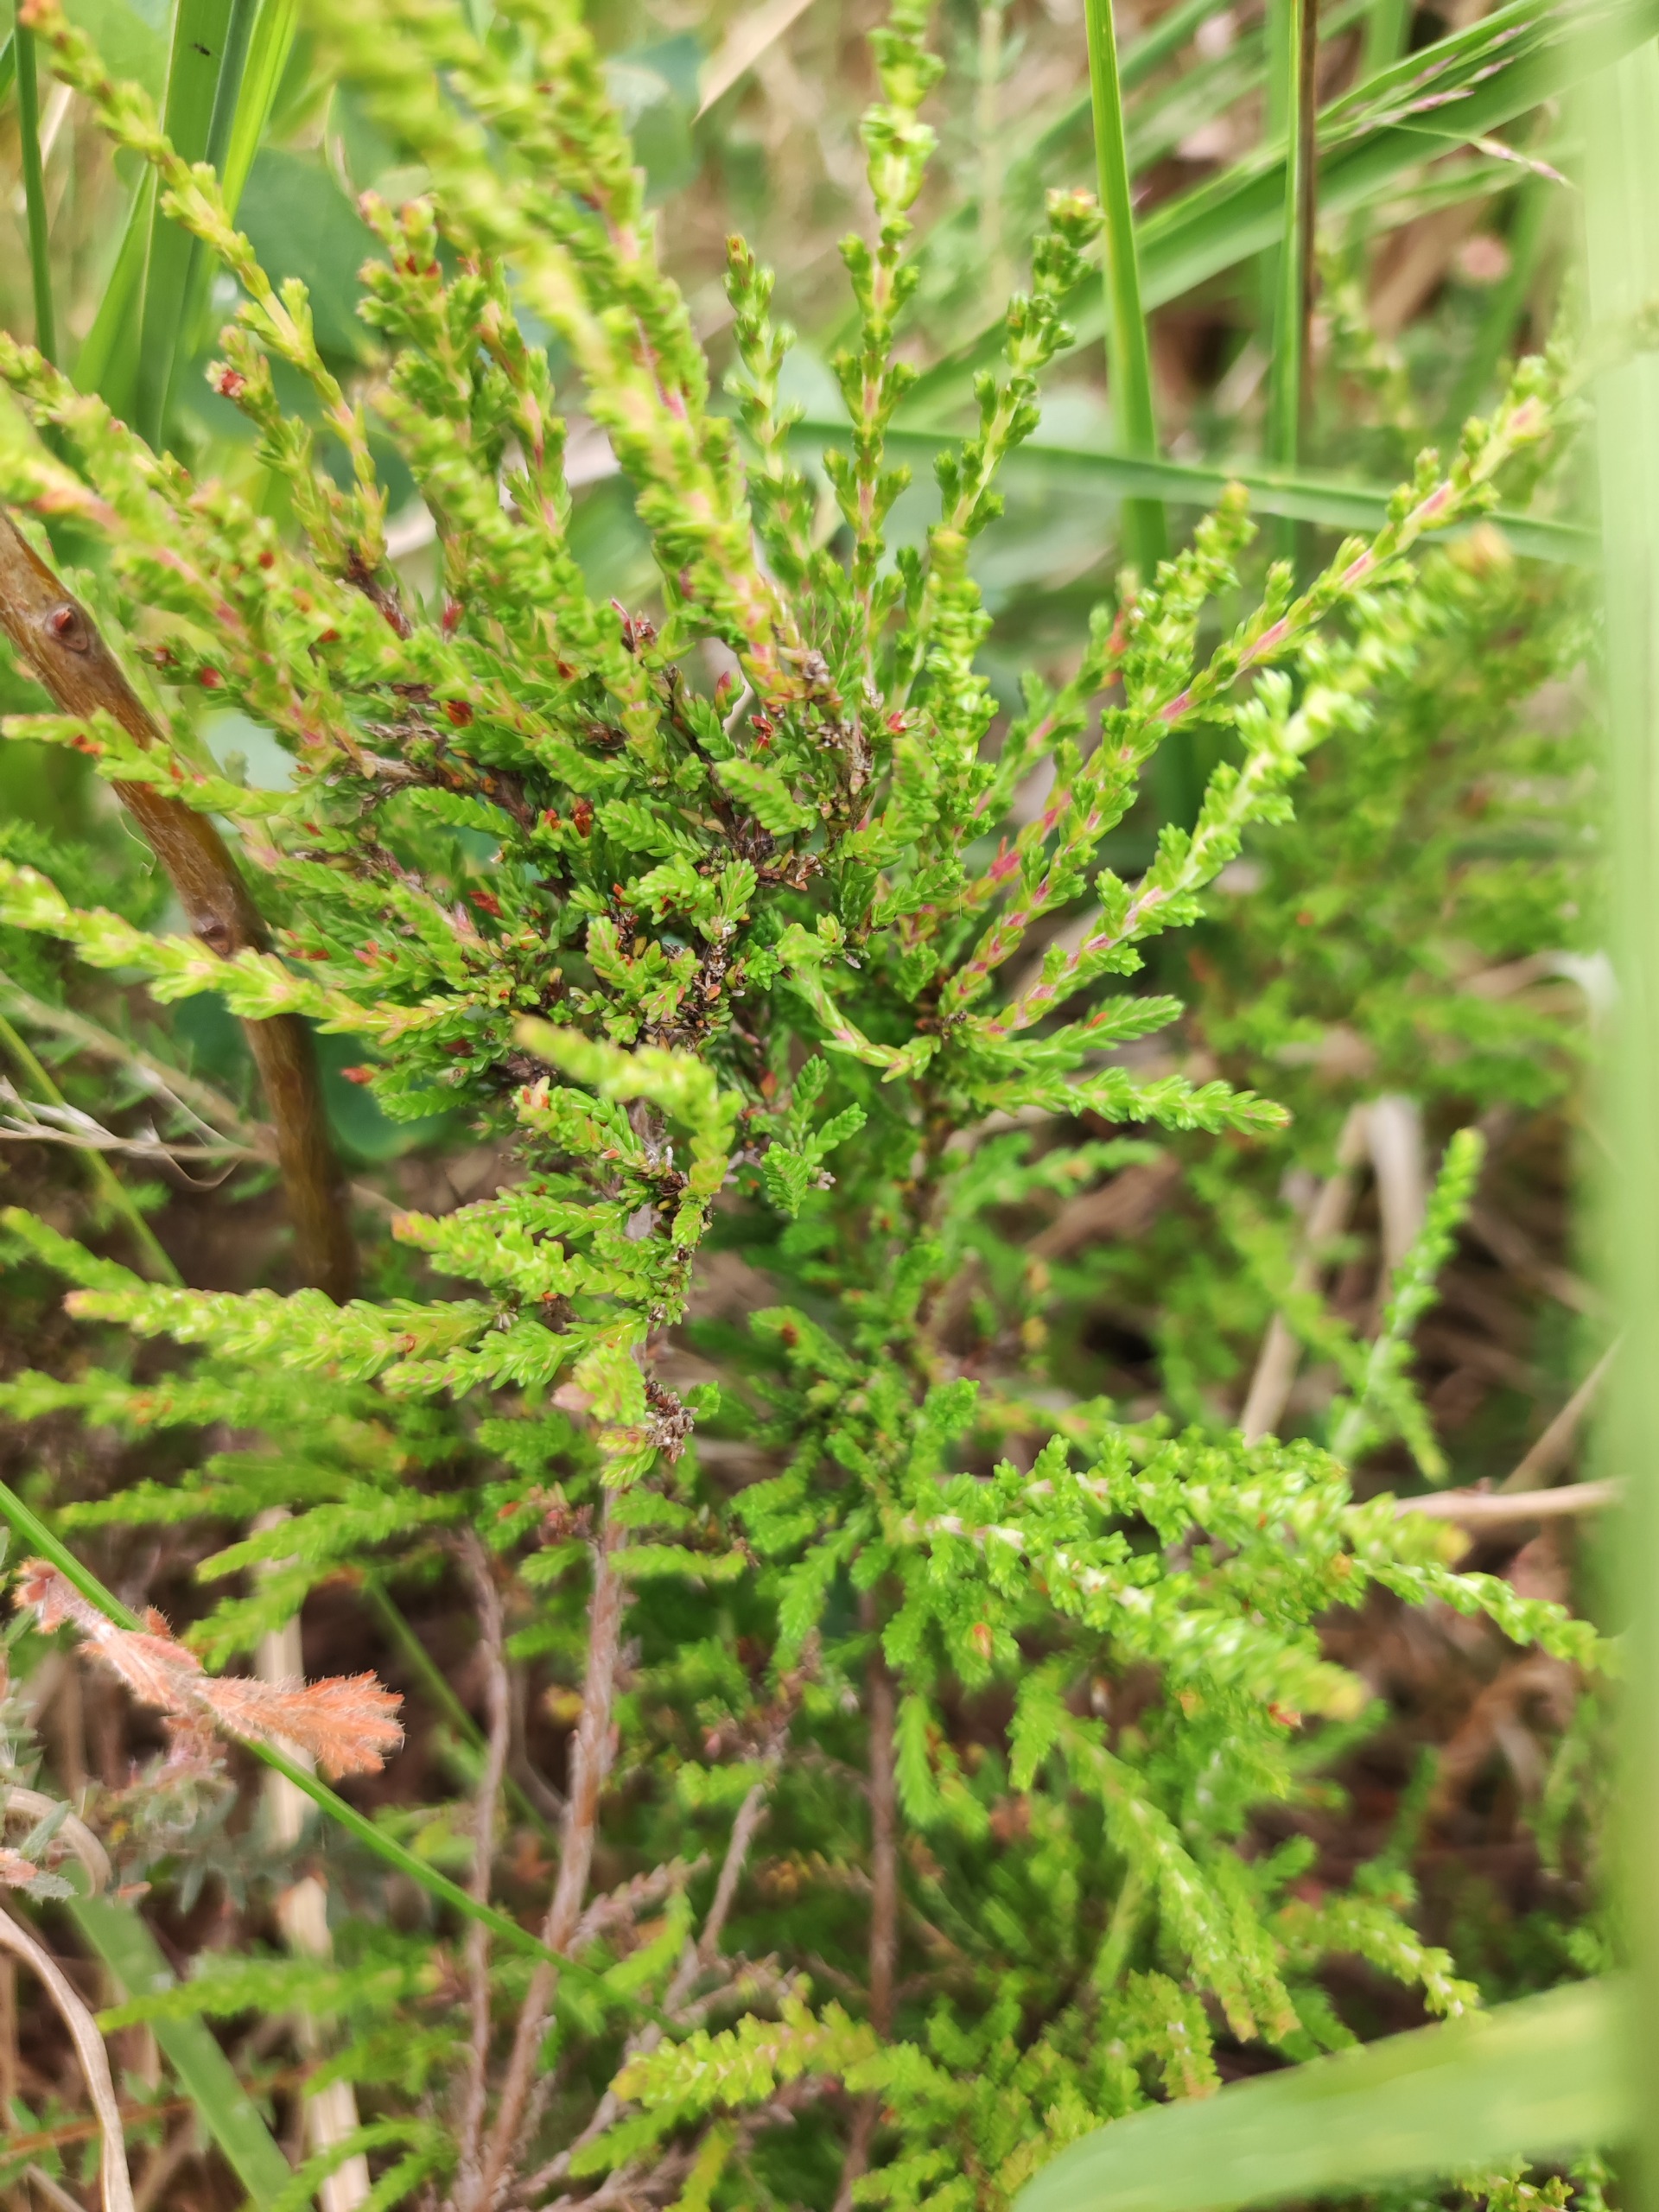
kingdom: Plantae
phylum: Tracheophyta
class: Magnoliopsida
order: Ericales
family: Ericaceae
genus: Calluna
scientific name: Calluna vulgaris
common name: Hedelyng
